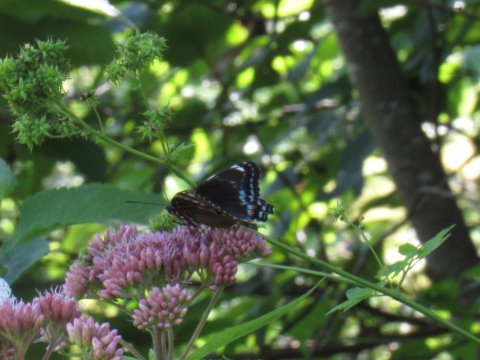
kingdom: Animalia
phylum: Arthropoda
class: Insecta
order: Lepidoptera
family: Nymphalidae
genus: Limenitis
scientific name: Limenitis arthemis
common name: Red-spotted Admiral
